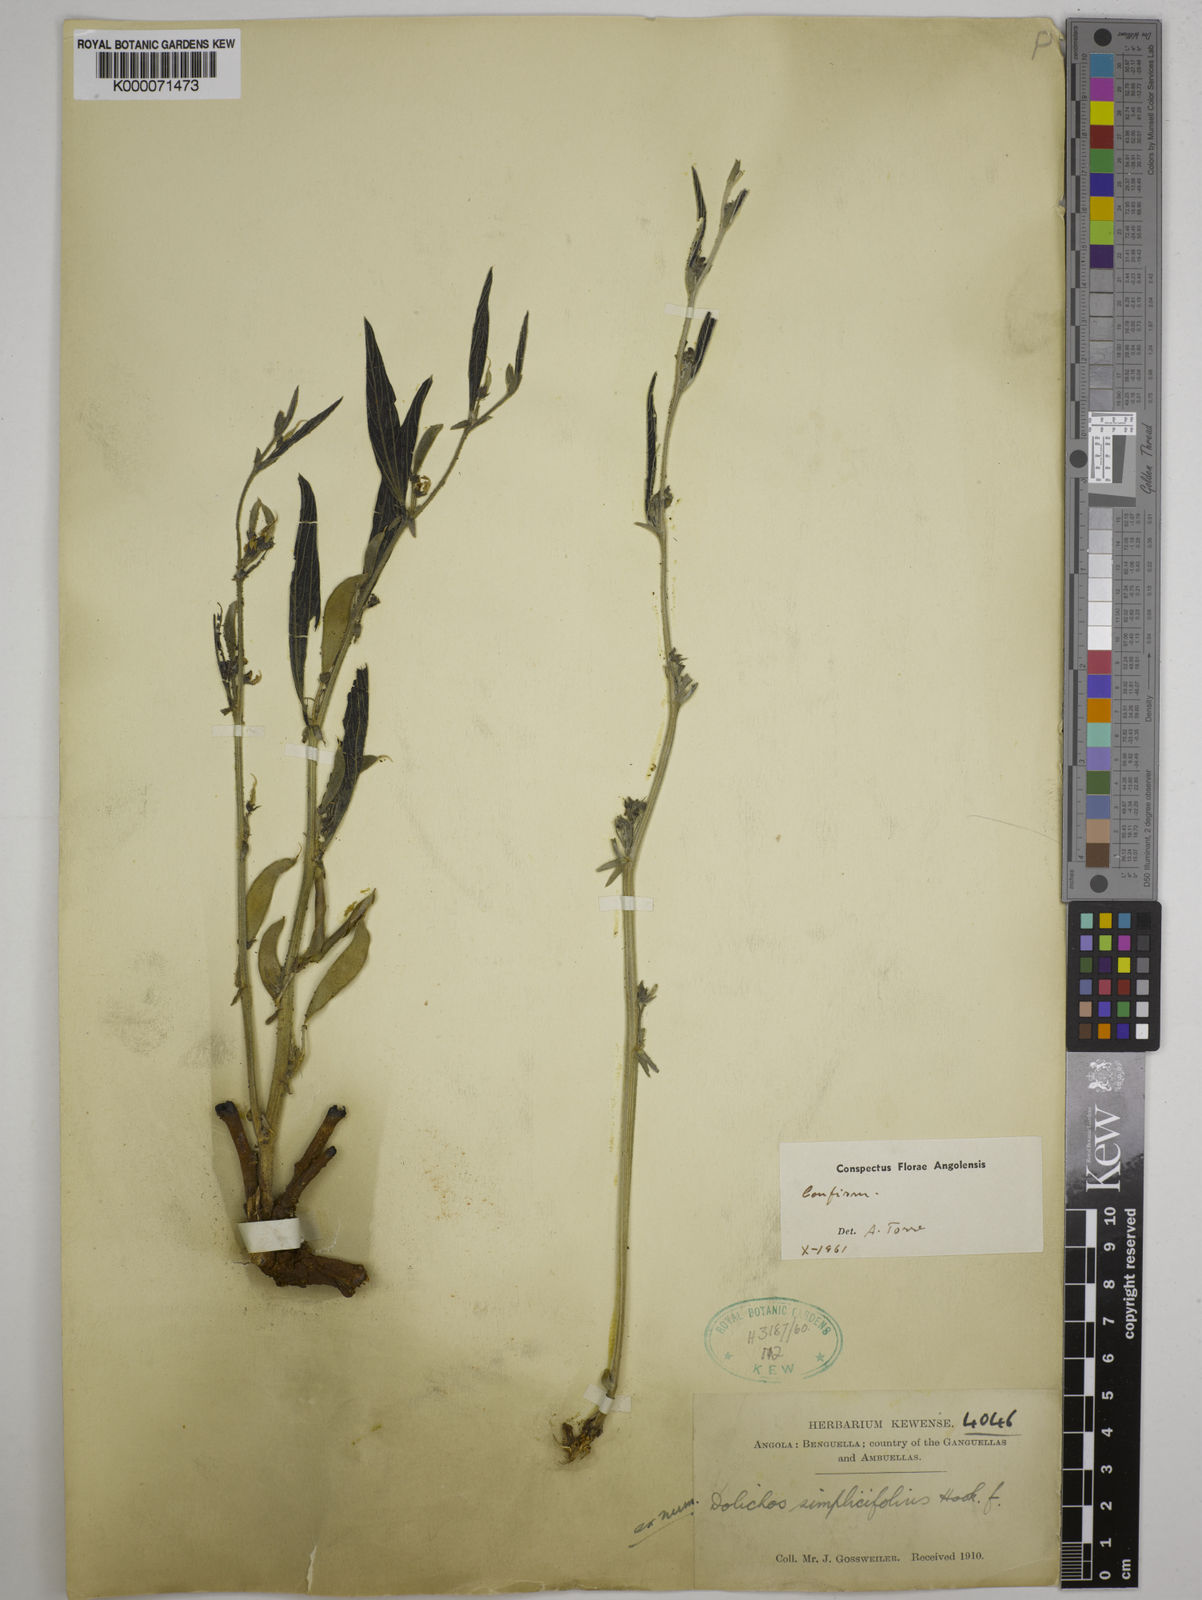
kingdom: Plantae
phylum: Tracheophyta
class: Magnoliopsida
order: Fabales
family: Fabaceae
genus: Dolichos
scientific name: Dolichos simplicifolius
